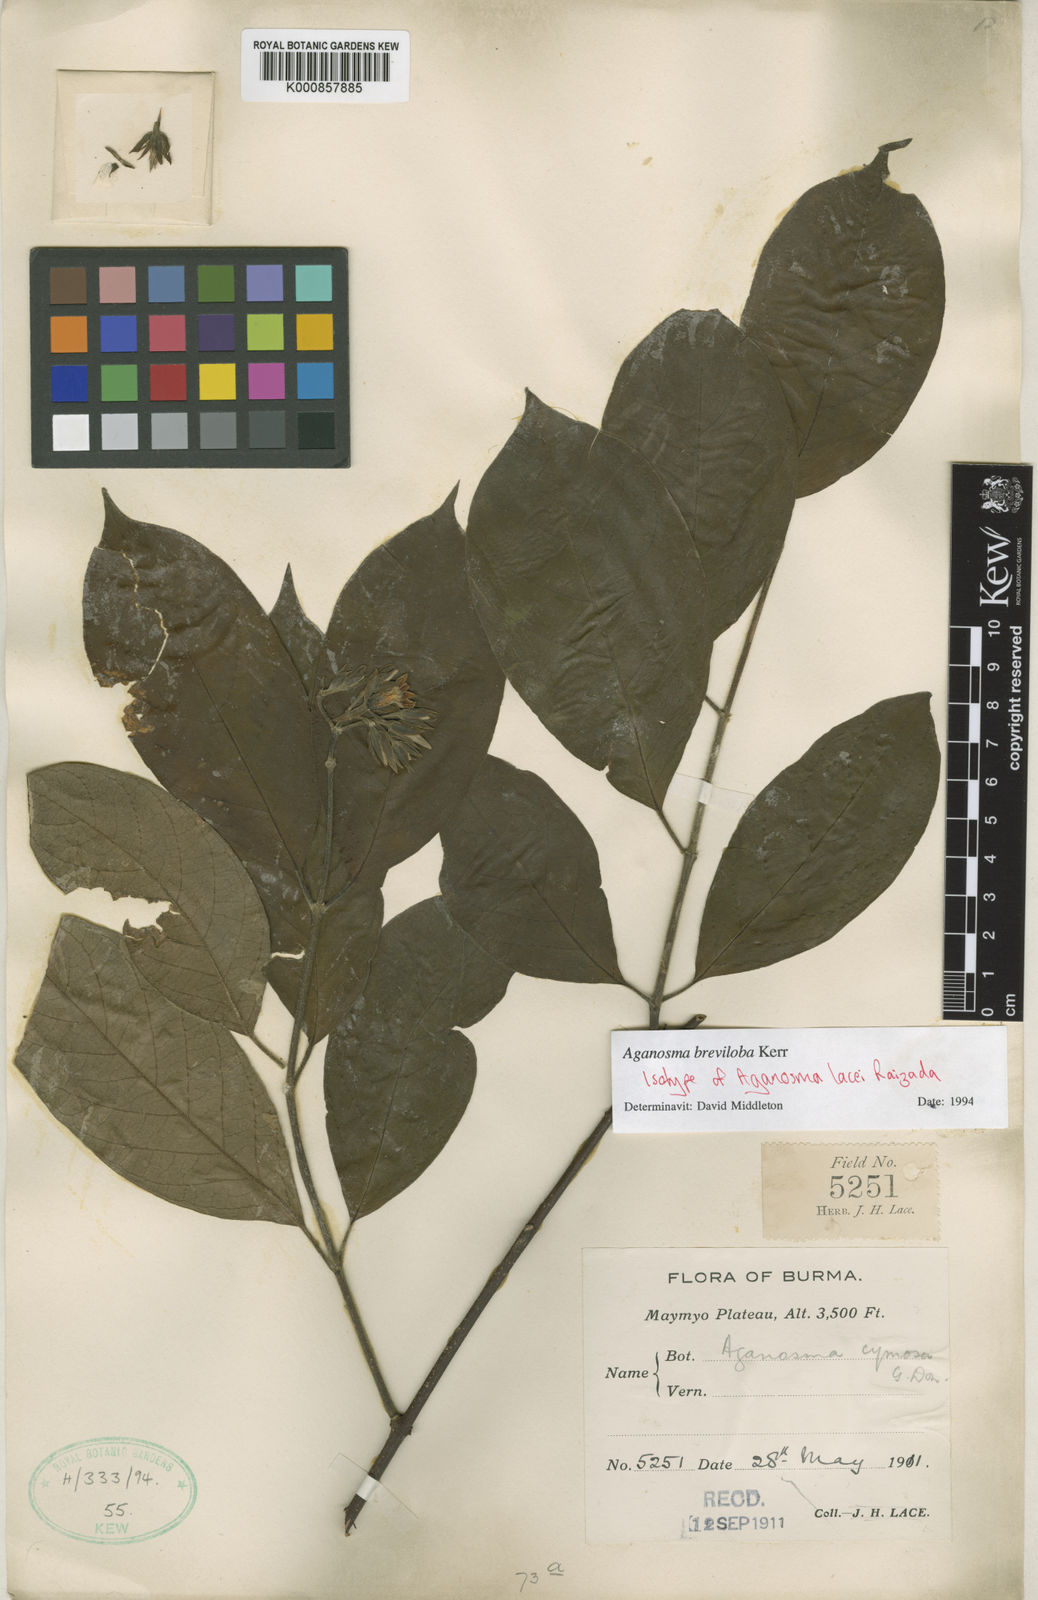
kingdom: Plantae
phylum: Tracheophyta
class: Magnoliopsida
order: Gentianales
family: Apocynaceae
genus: Aganosma
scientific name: Aganosma breviloba
